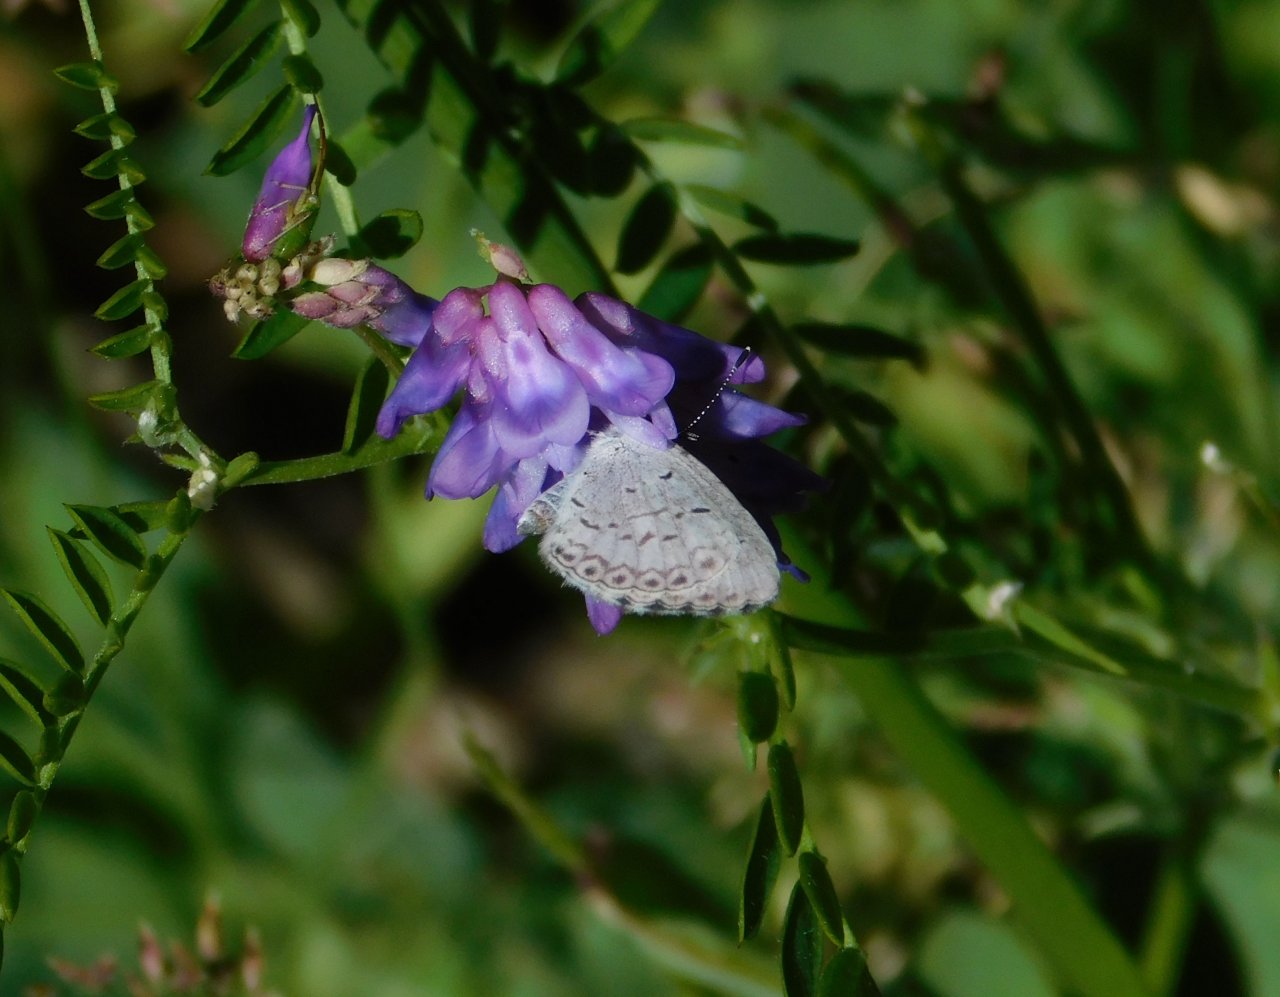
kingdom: Animalia
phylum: Arthropoda
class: Insecta
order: Lepidoptera
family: Lycaenidae
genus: Celastrina
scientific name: Celastrina
